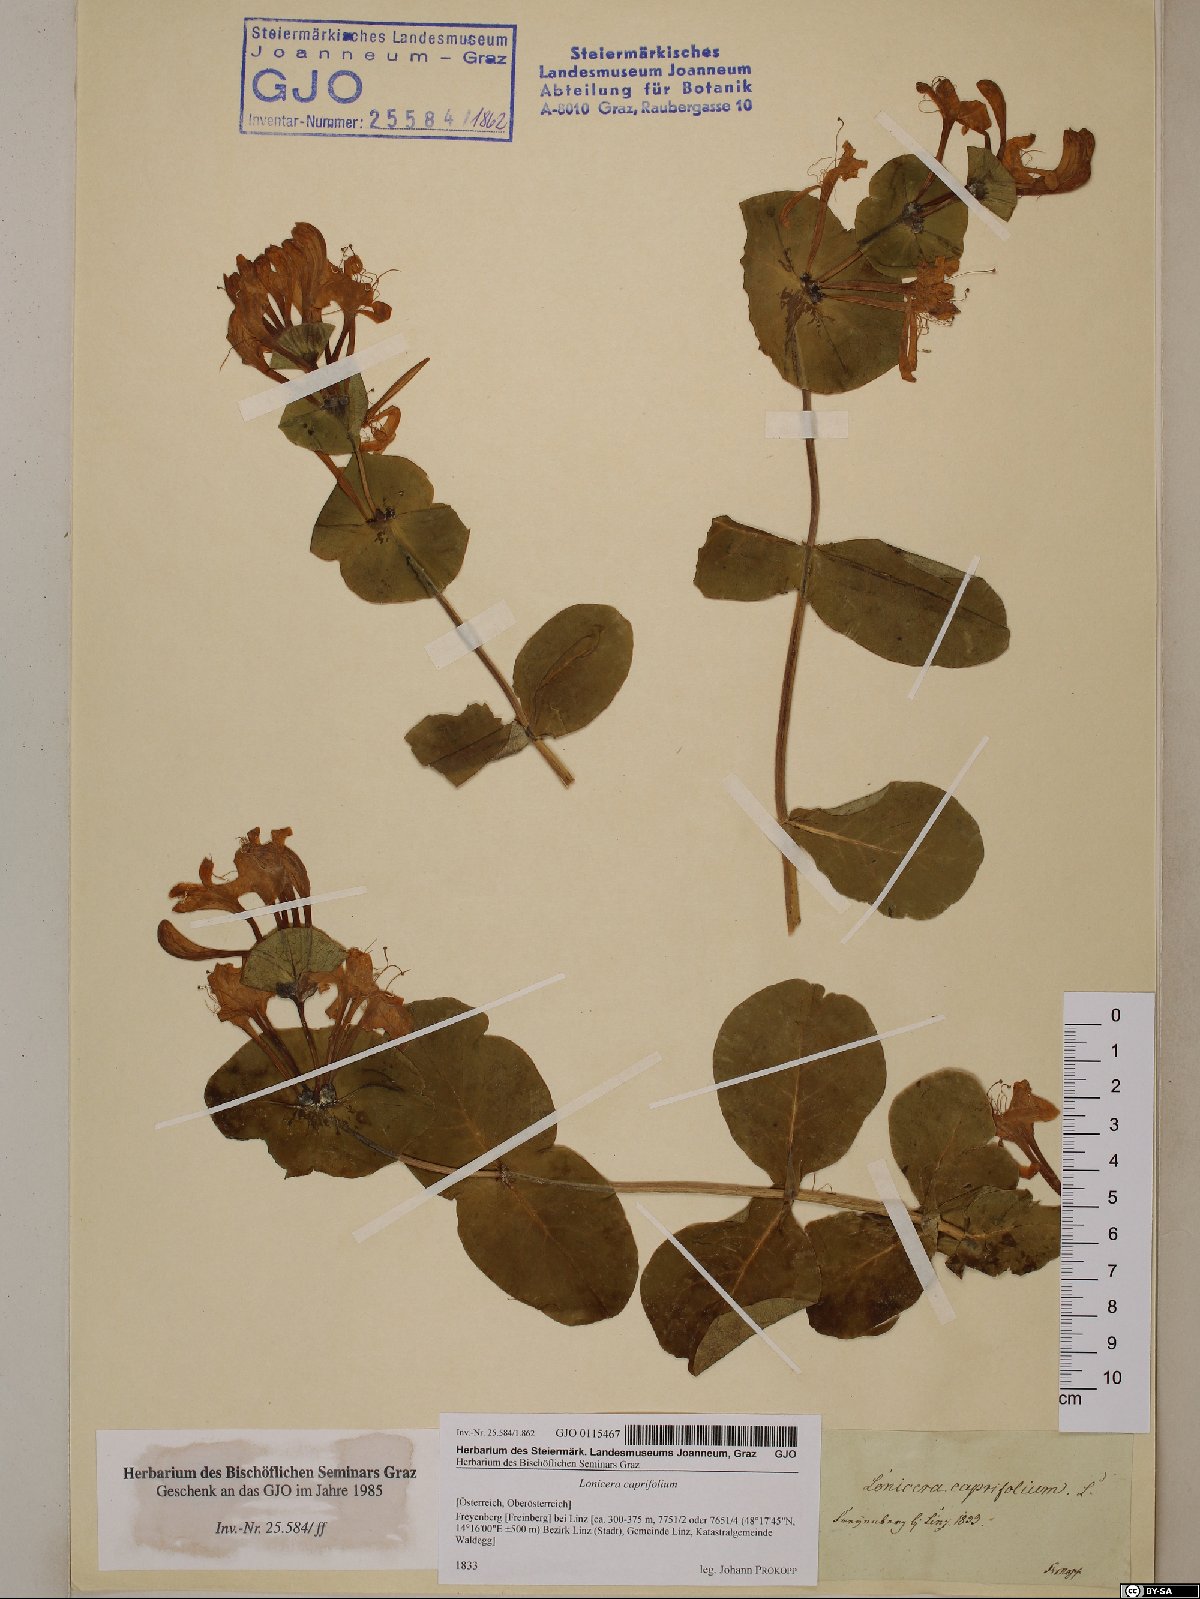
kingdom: Plantae
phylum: Tracheophyta
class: Magnoliopsida
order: Dipsacales
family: Caprifoliaceae
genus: Lonicera
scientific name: Lonicera caprifolium
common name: Perfoliate honeysuckle
